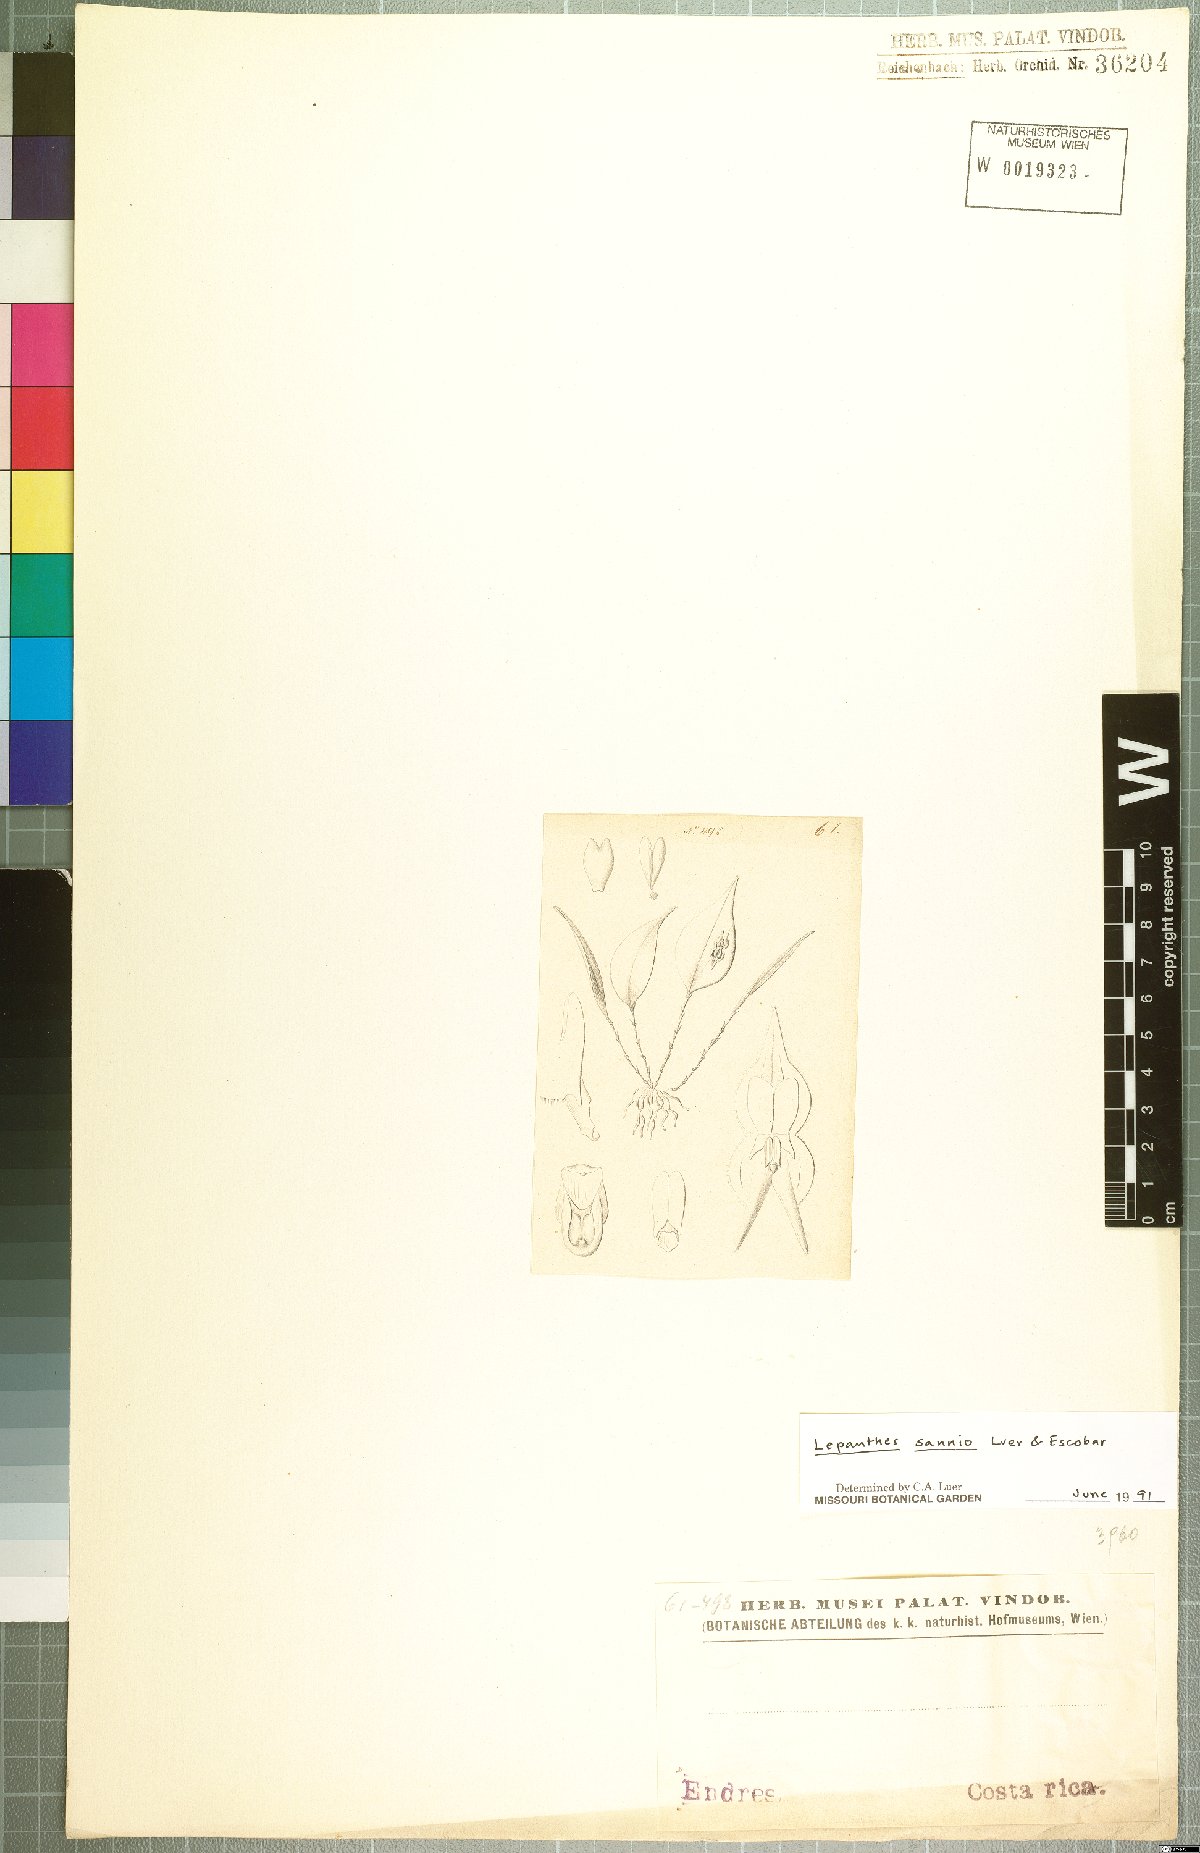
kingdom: Plantae
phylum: Tracheophyta
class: Liliopsida
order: Asparagales
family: Orchidaceae
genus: Lepanthes
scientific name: Lepanthes sannio
